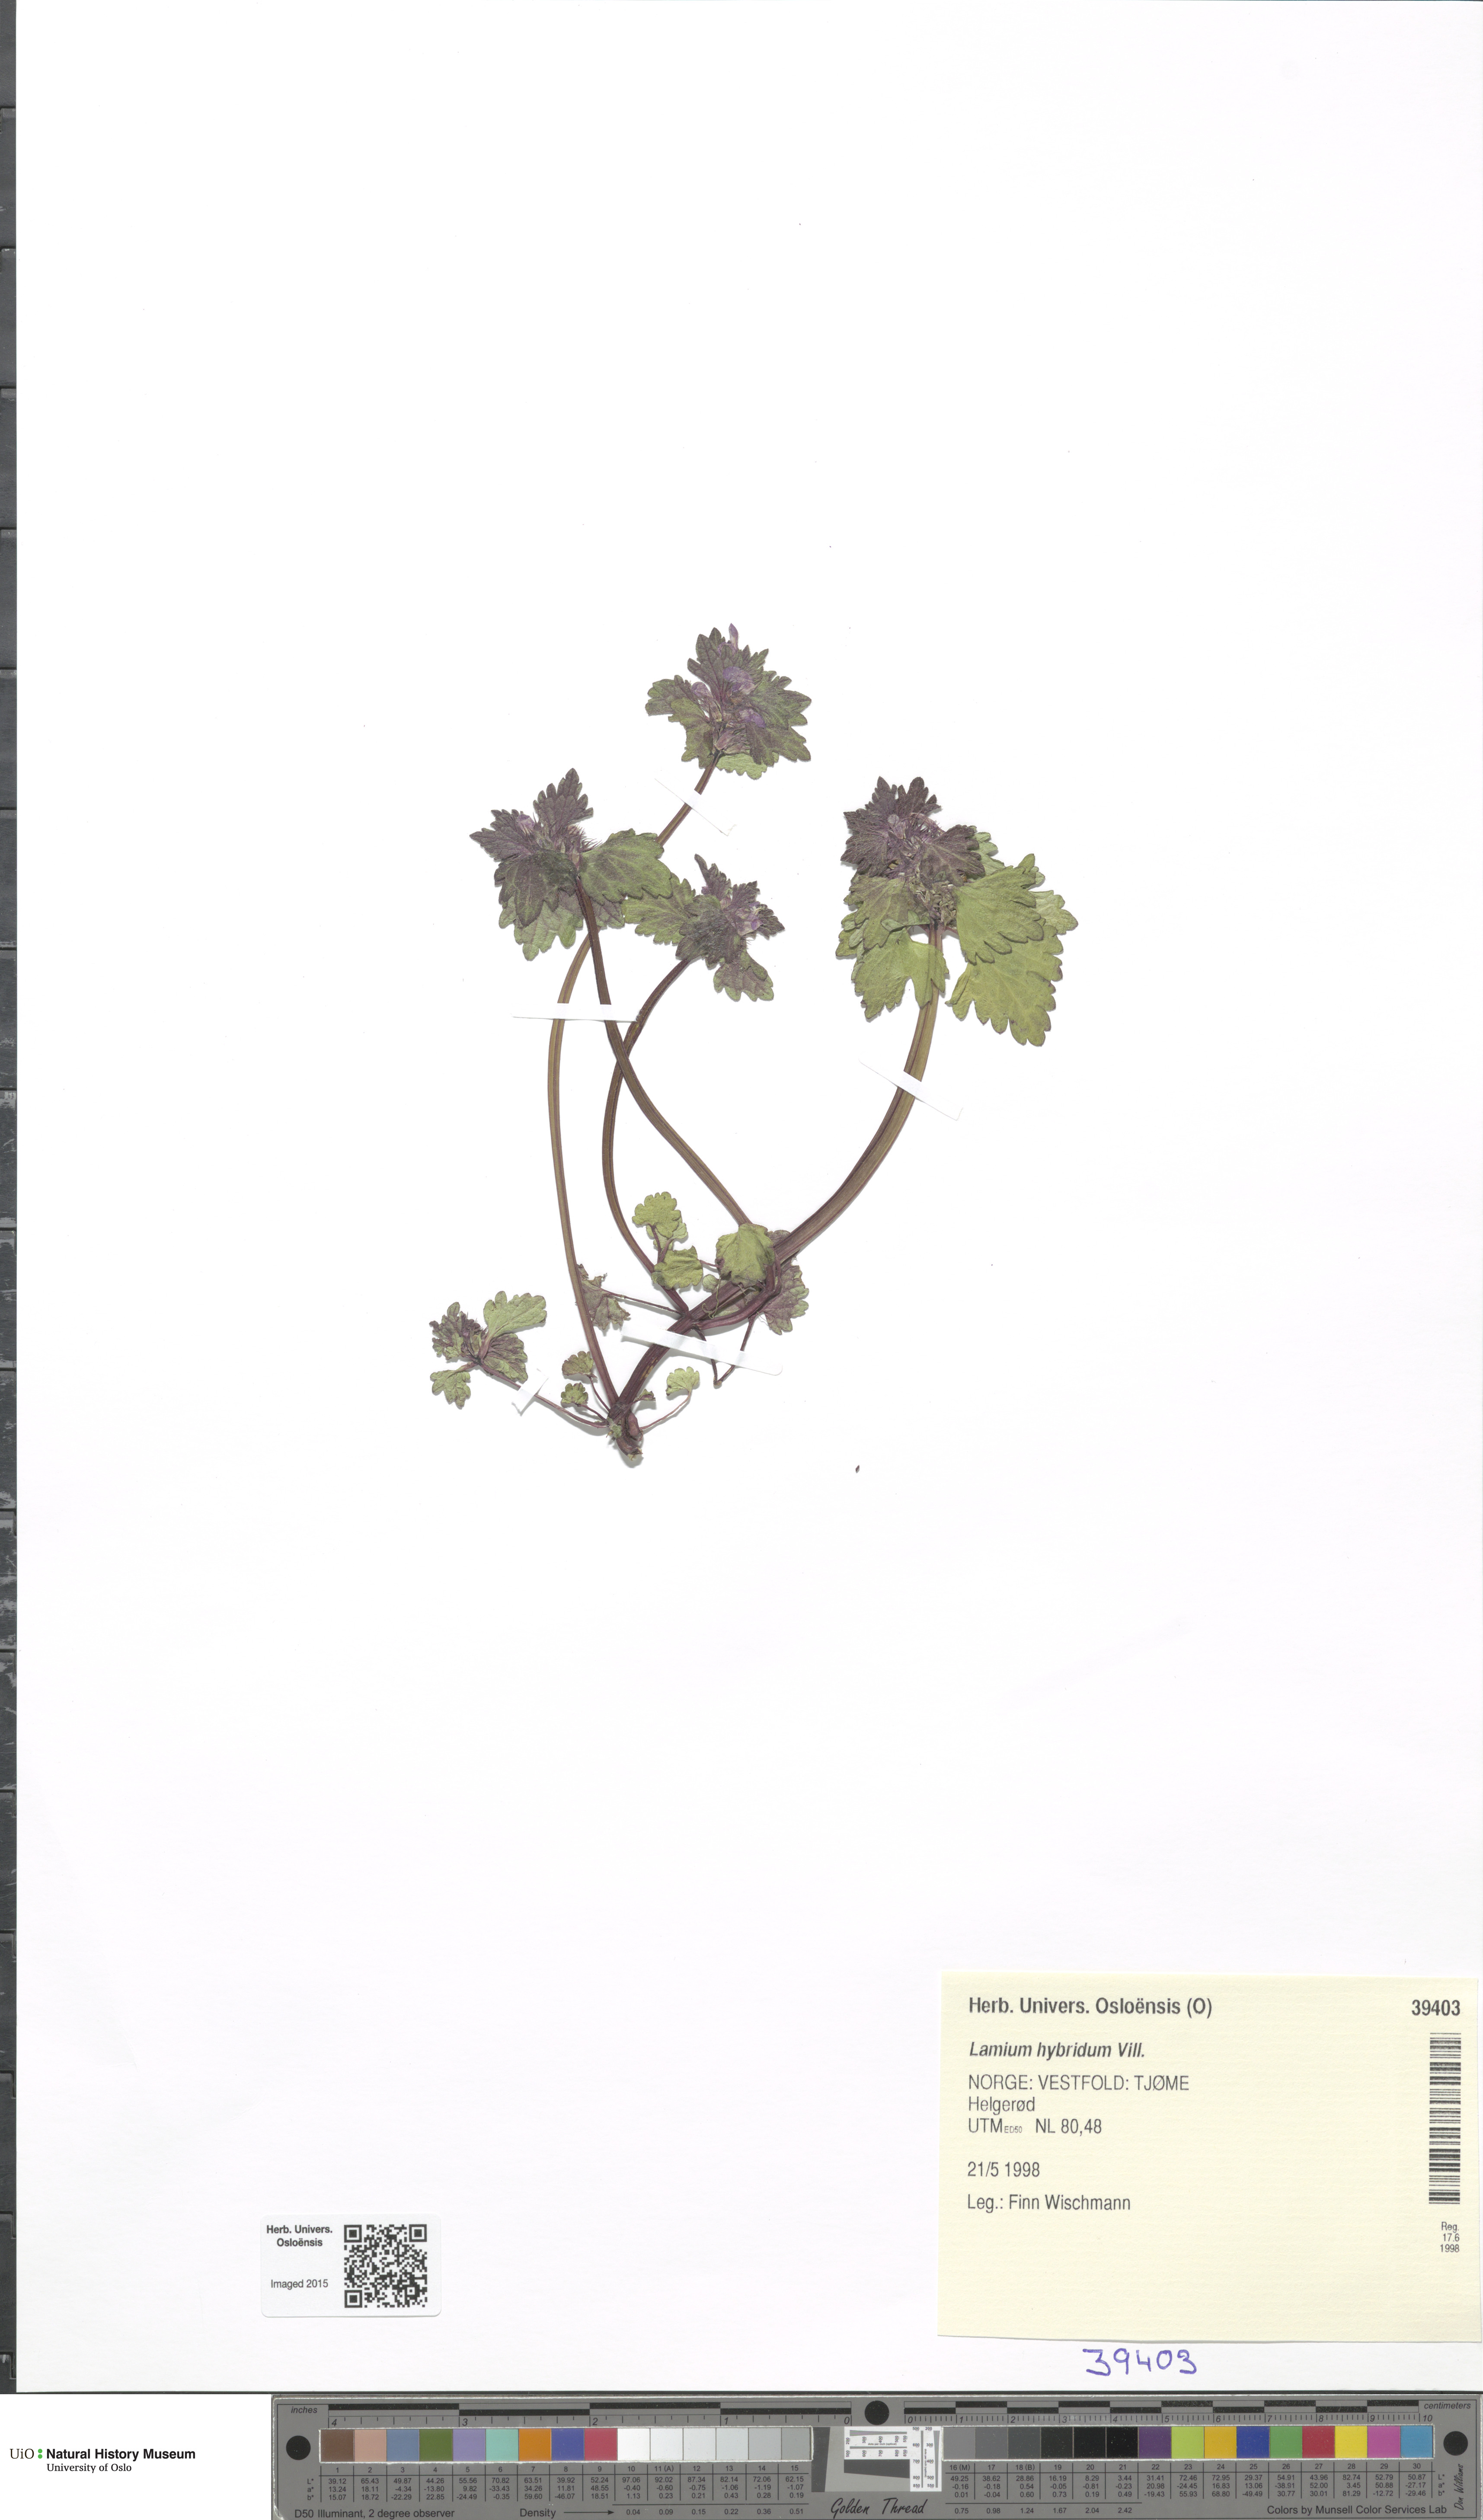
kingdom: Plantae
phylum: Tracheophyta
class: Magnoliopsida
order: Lamiales
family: Lamiaceae
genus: Lamium
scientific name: Lamium hybridum
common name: Cut-leaved dead-nettle
